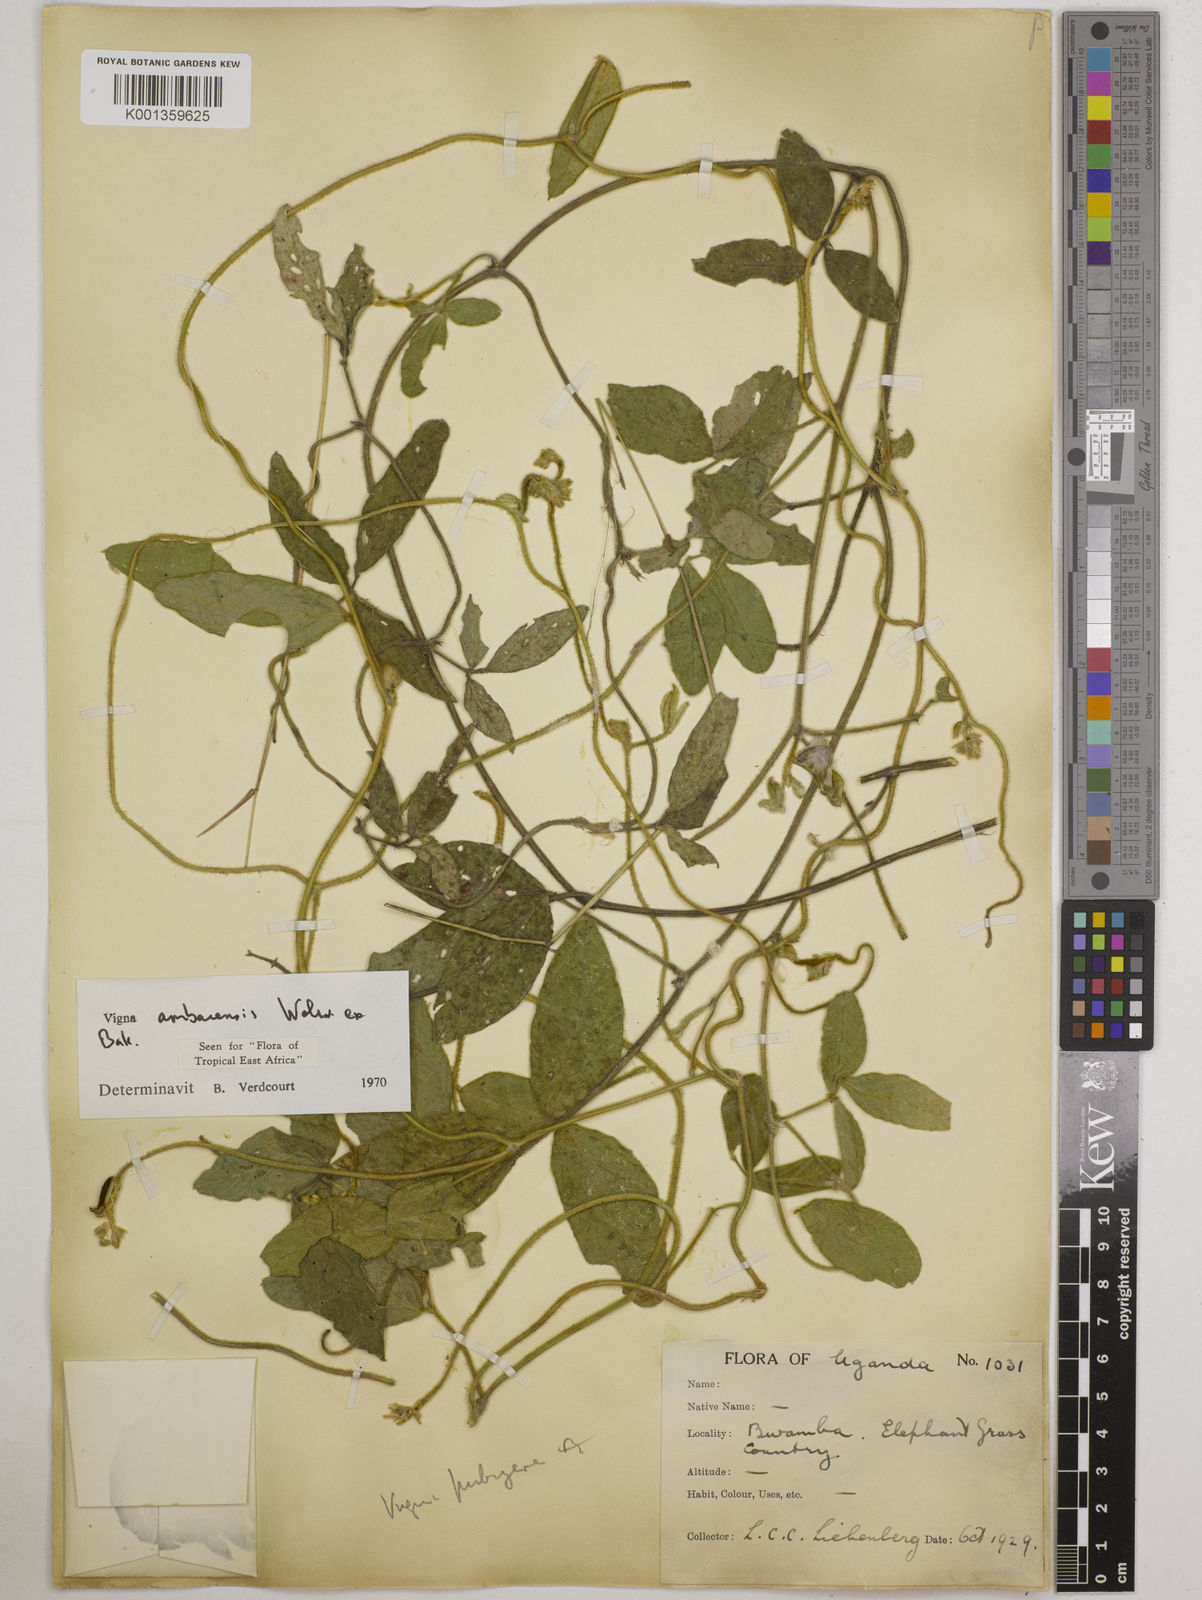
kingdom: Plantae
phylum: Tracheophyta
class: Magnoliopsida
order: Fabales
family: Fabaceae
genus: Vigna
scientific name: Vigna ambacensis
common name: Tsarkiyan zomo
